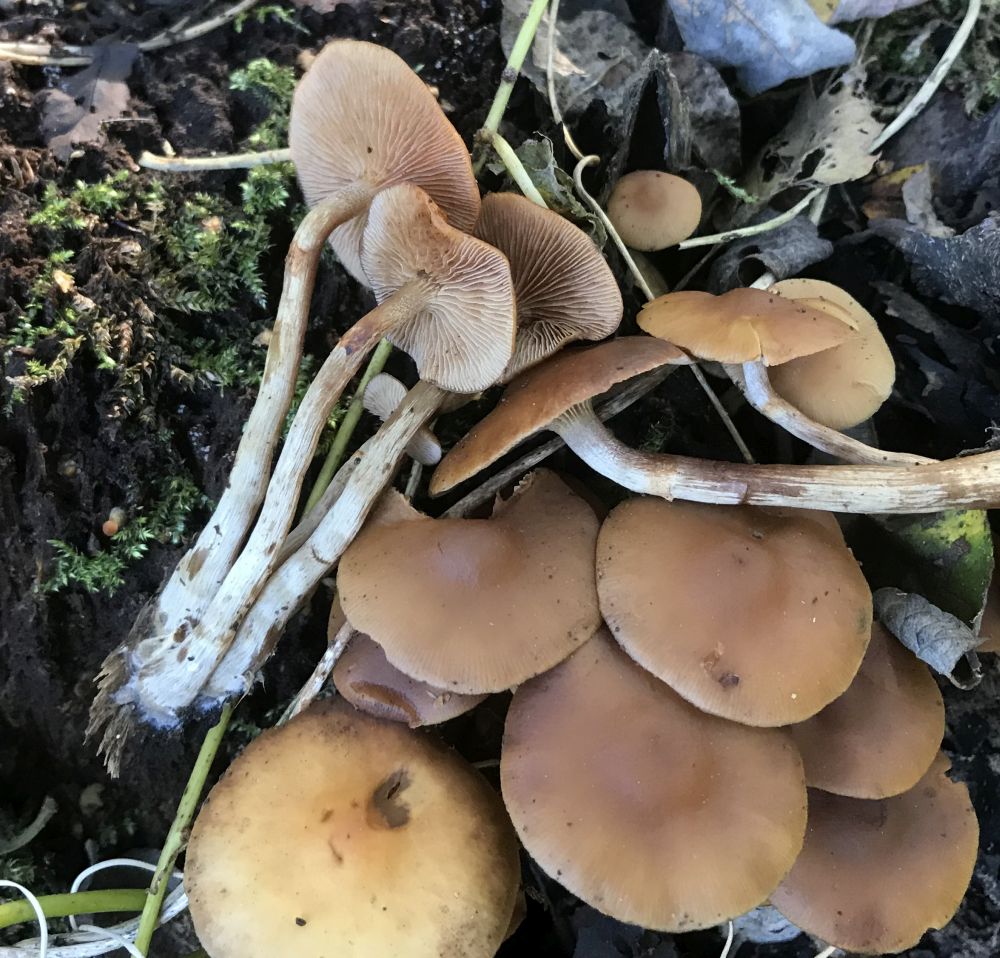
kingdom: Fungi
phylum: Basidiomycota
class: Agaricomycetes
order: Agaricales
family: Hymenogastraceae
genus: Galerina
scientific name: Galerina marginata
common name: randbæltet hjelmhat
